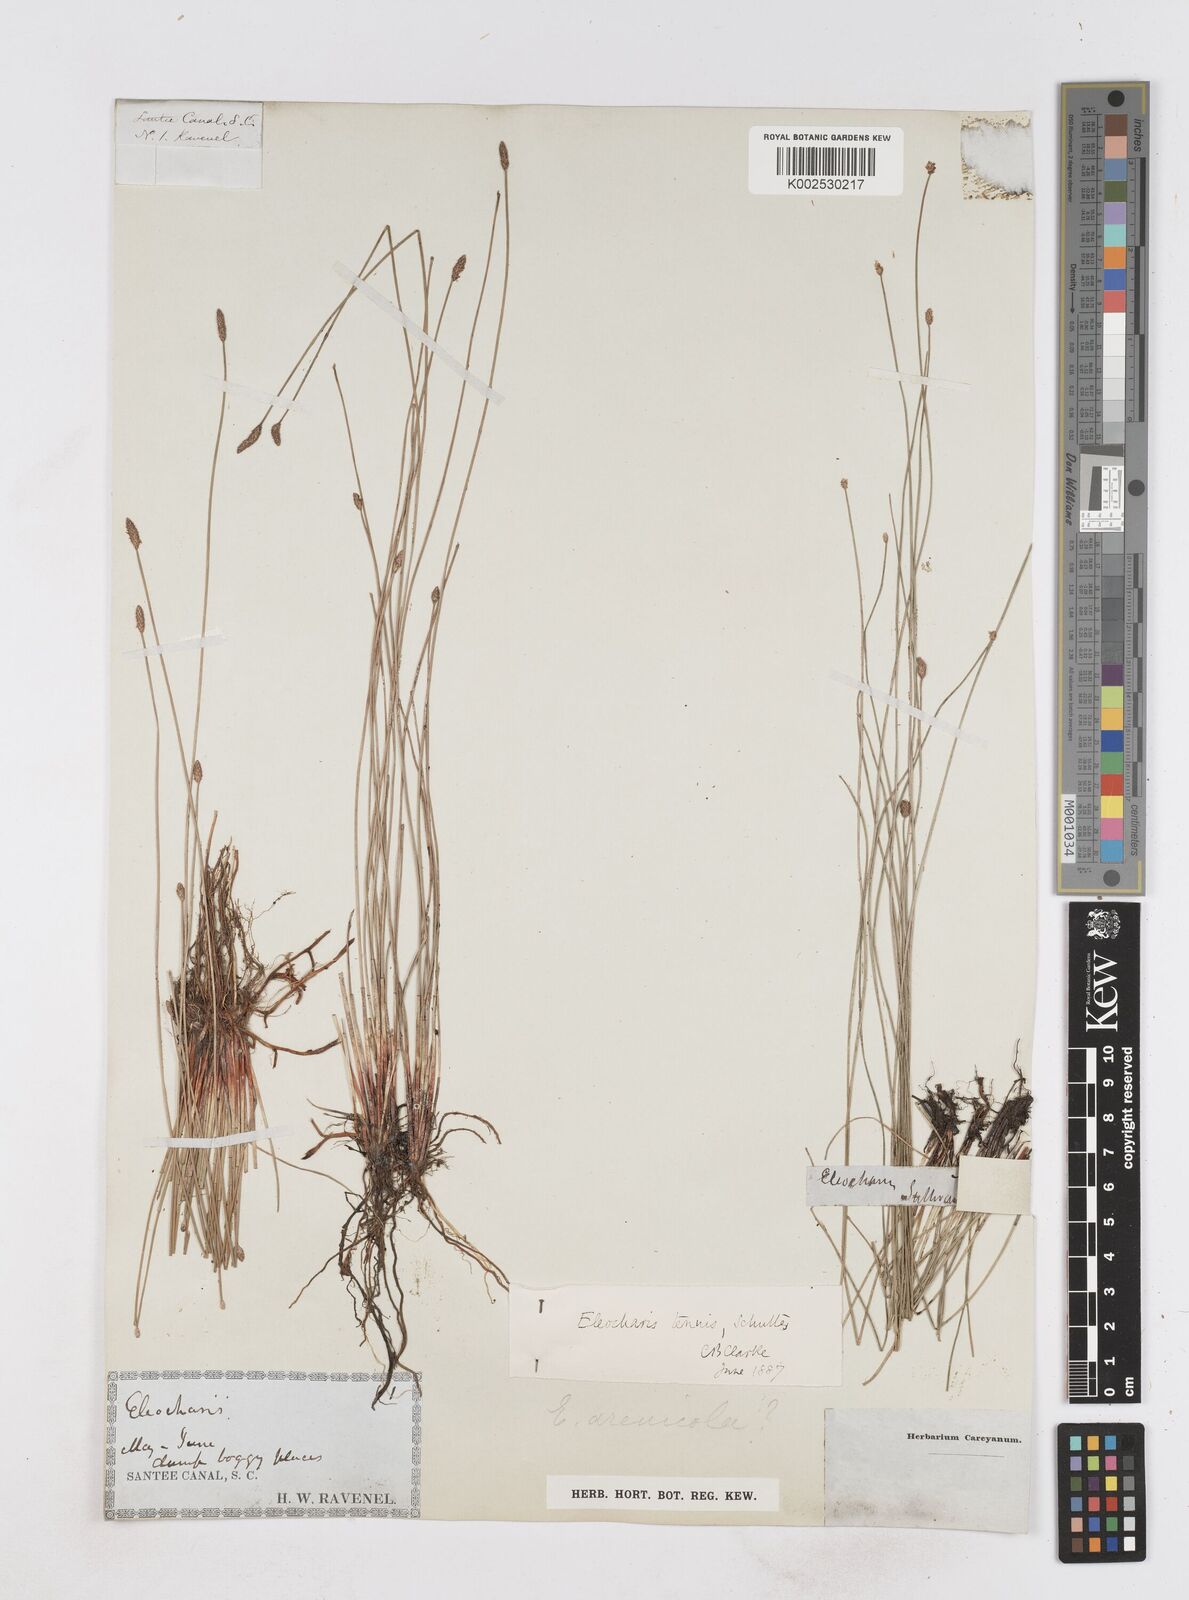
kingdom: Plantae
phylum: Tracheophyta
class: Liliopsida
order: Poales
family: Cyperaceae
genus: Eleocharis
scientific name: Eleocharis tenuis
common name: Dog's hair
